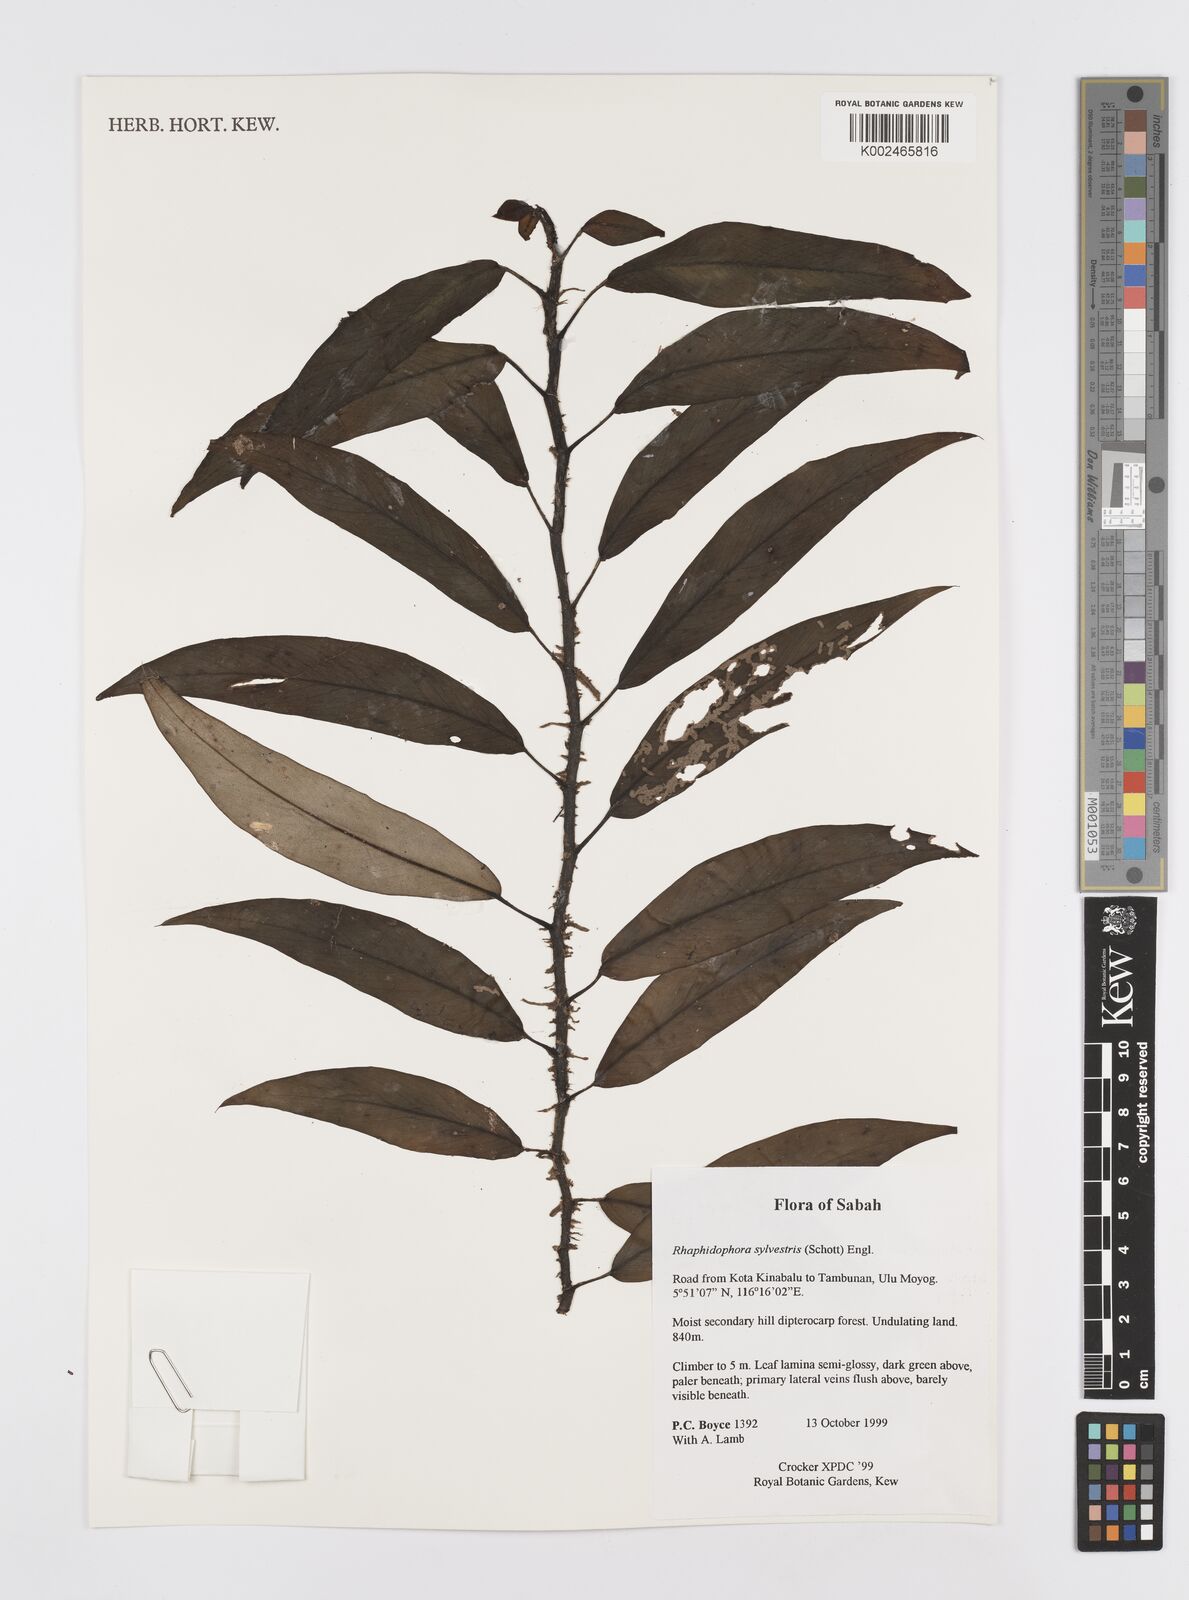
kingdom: Plantae
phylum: Tracheophyta
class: Liliopsida
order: Alismatales
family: Araceae
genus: Rhaphidophora
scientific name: Rhaphidophora sylvestris
